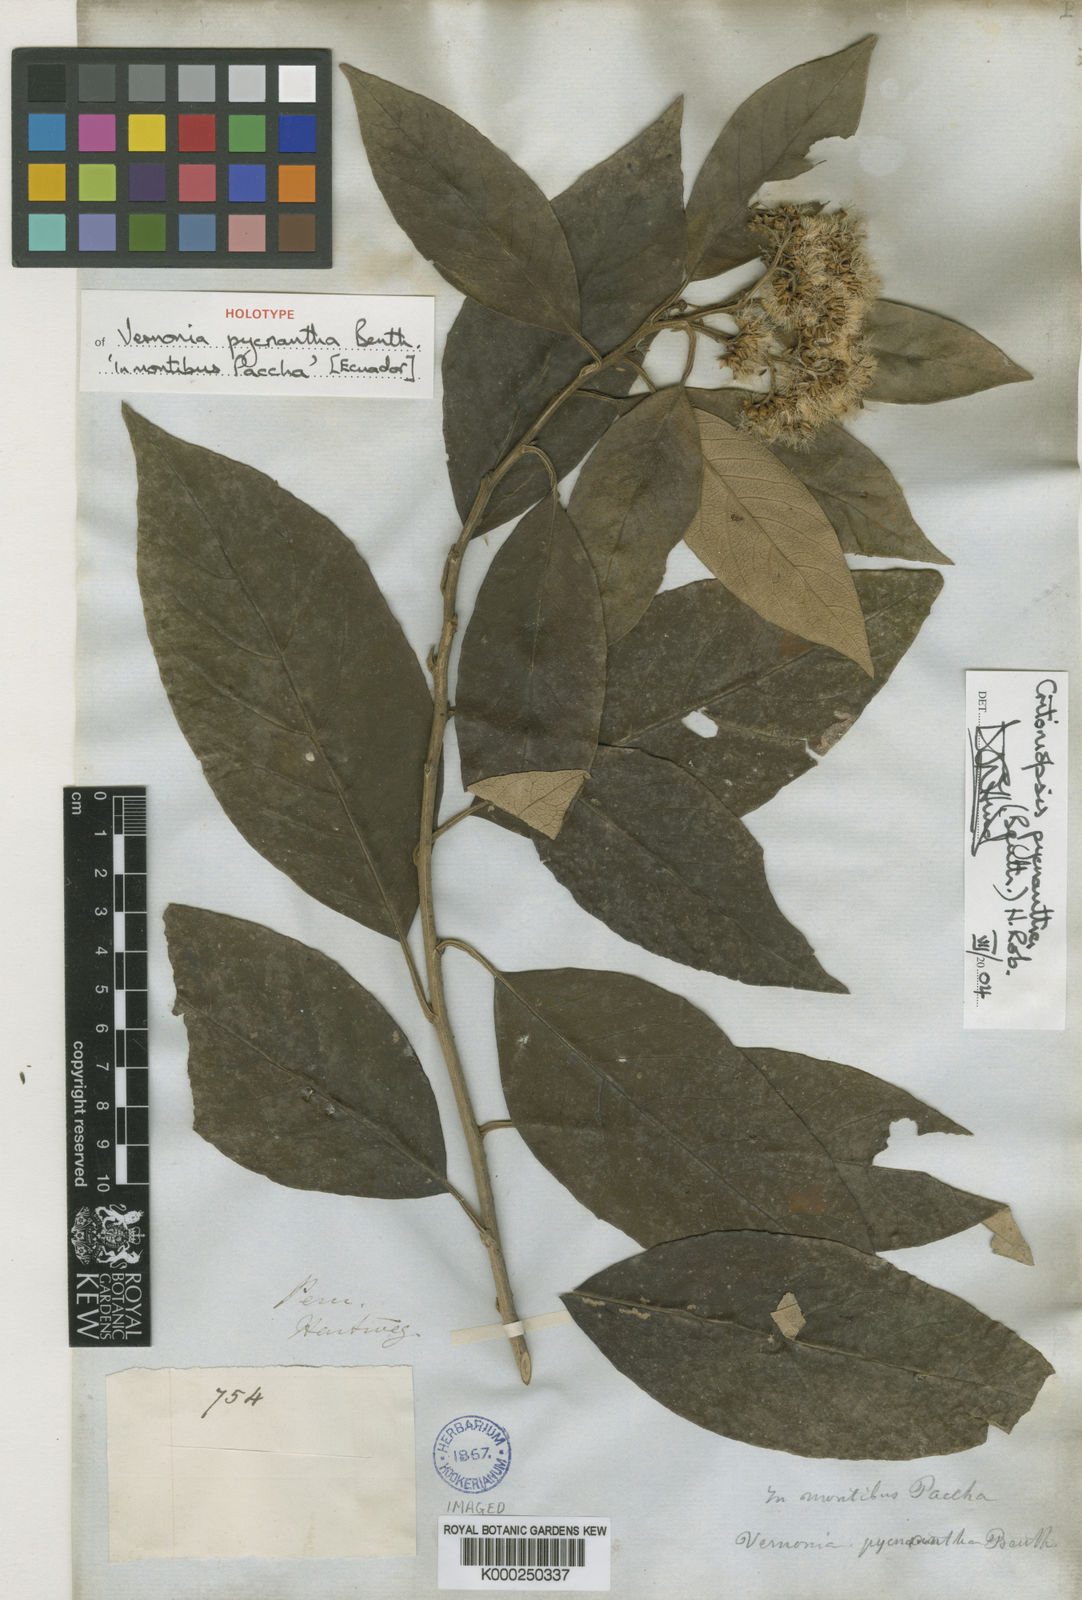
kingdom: Plantae
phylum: Tracheophyta
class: Magnoliopsida
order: Asterales
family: Asteraceae
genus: Critoniopsis
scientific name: Critoniopsis pycnantha
